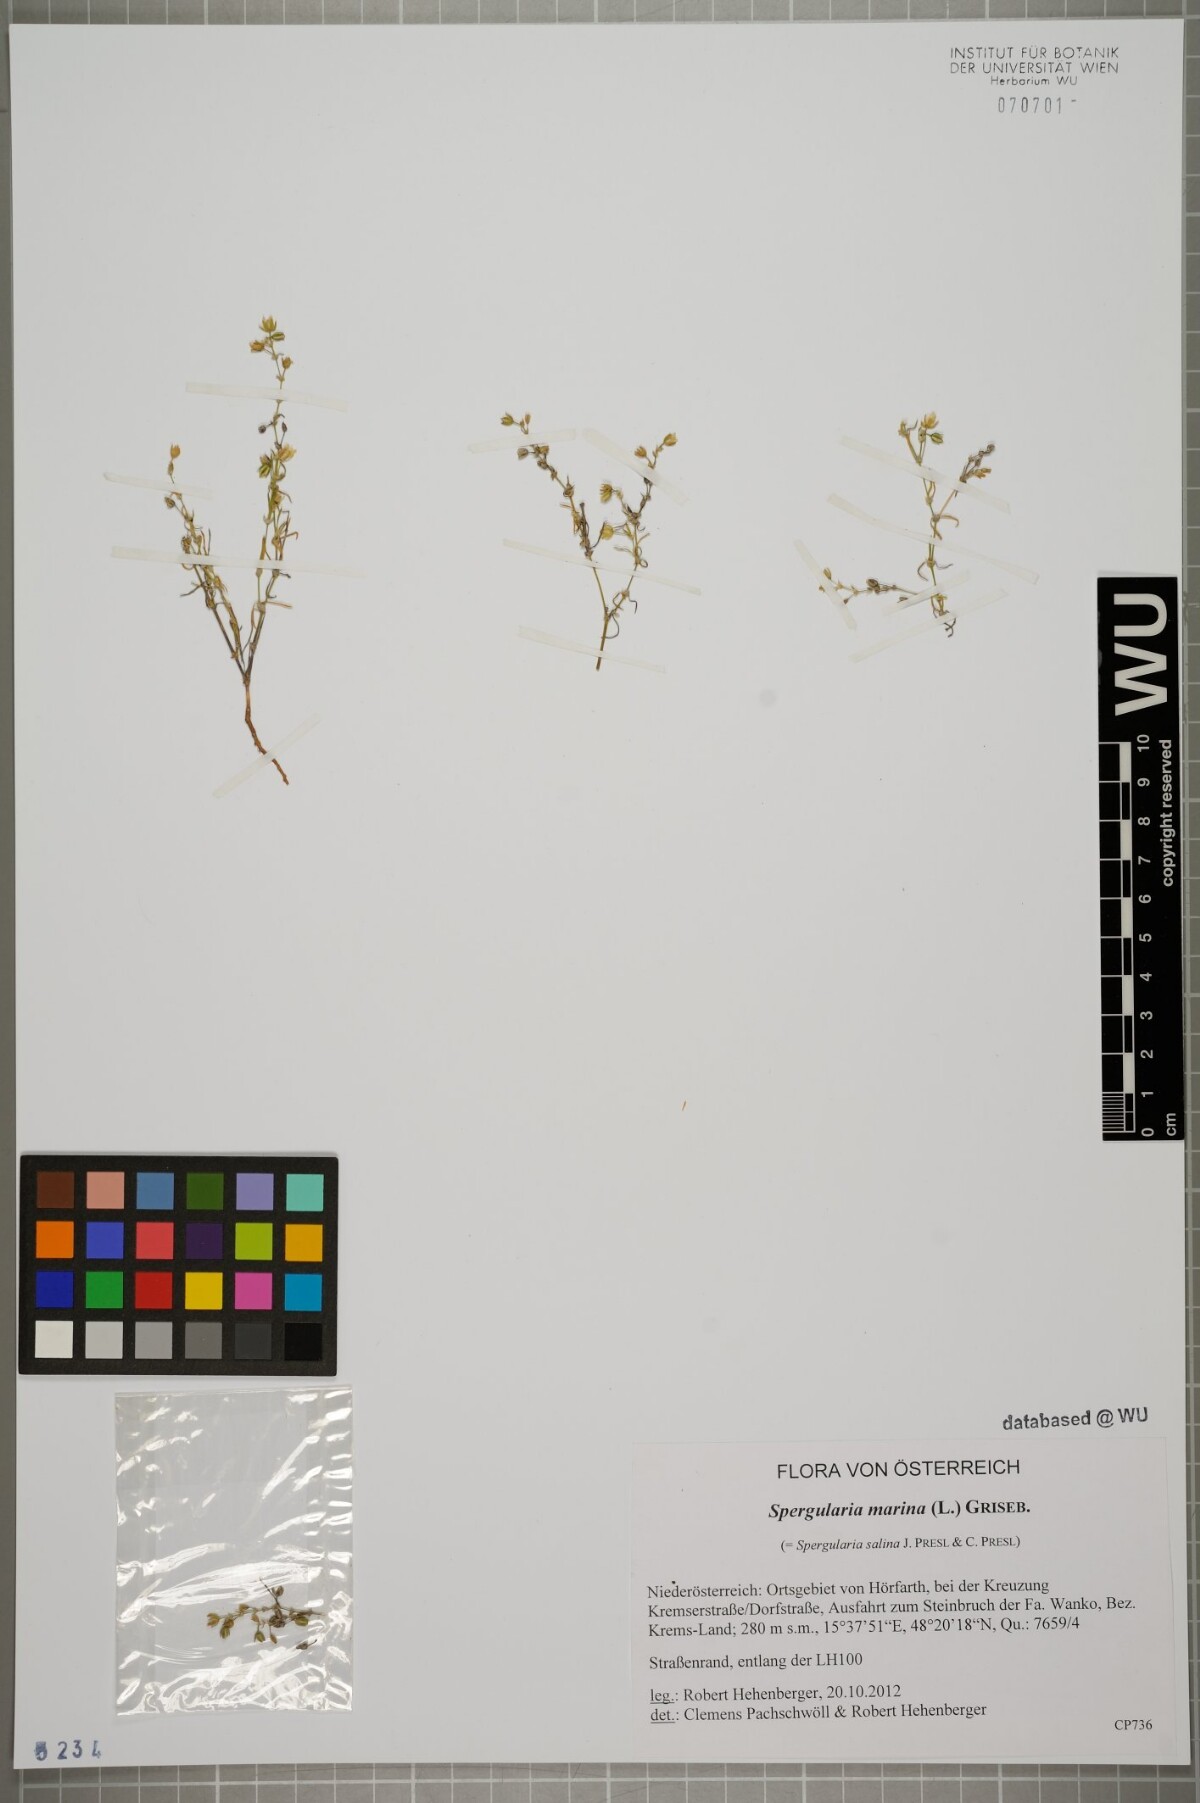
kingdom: Plantae
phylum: Tracheophyta
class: Magnoliopsida
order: Caryophyllales
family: Caryophyllaceae
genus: Spergularia
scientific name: Spergularia marina
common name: Lesser sea-spurrey
